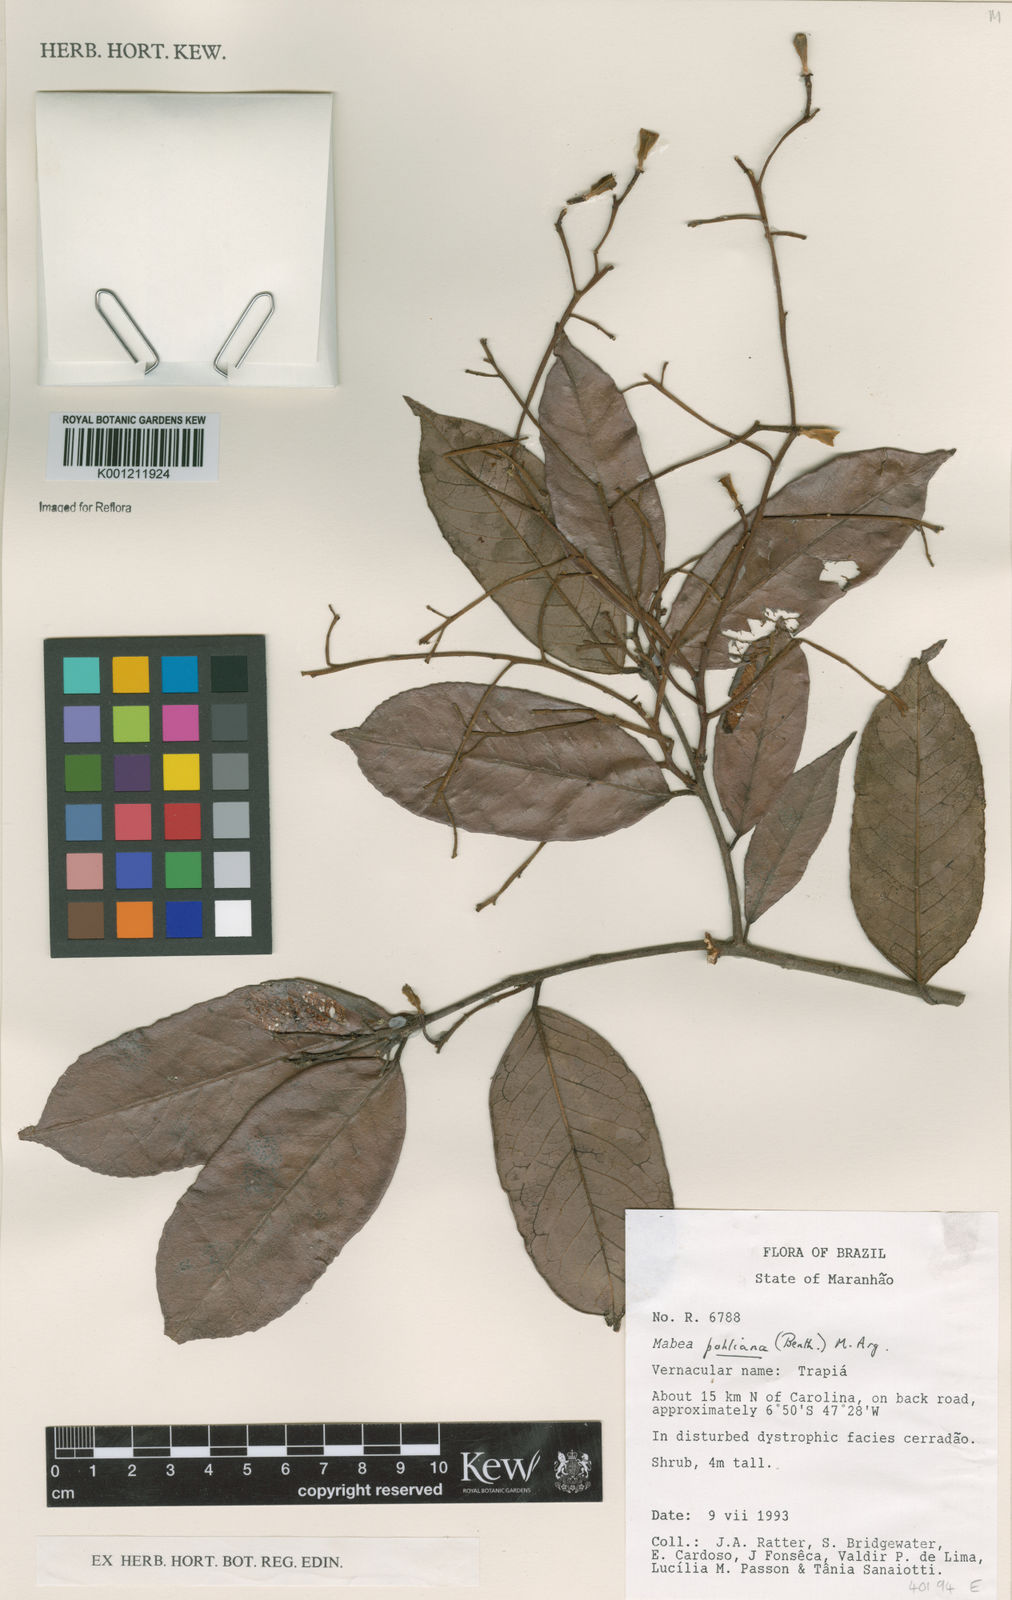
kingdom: Plantae
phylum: Tracheophyta
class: Magnoliopsida
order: Malpighiales
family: Euphorbiaceae
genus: Mabea
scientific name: Mabea
